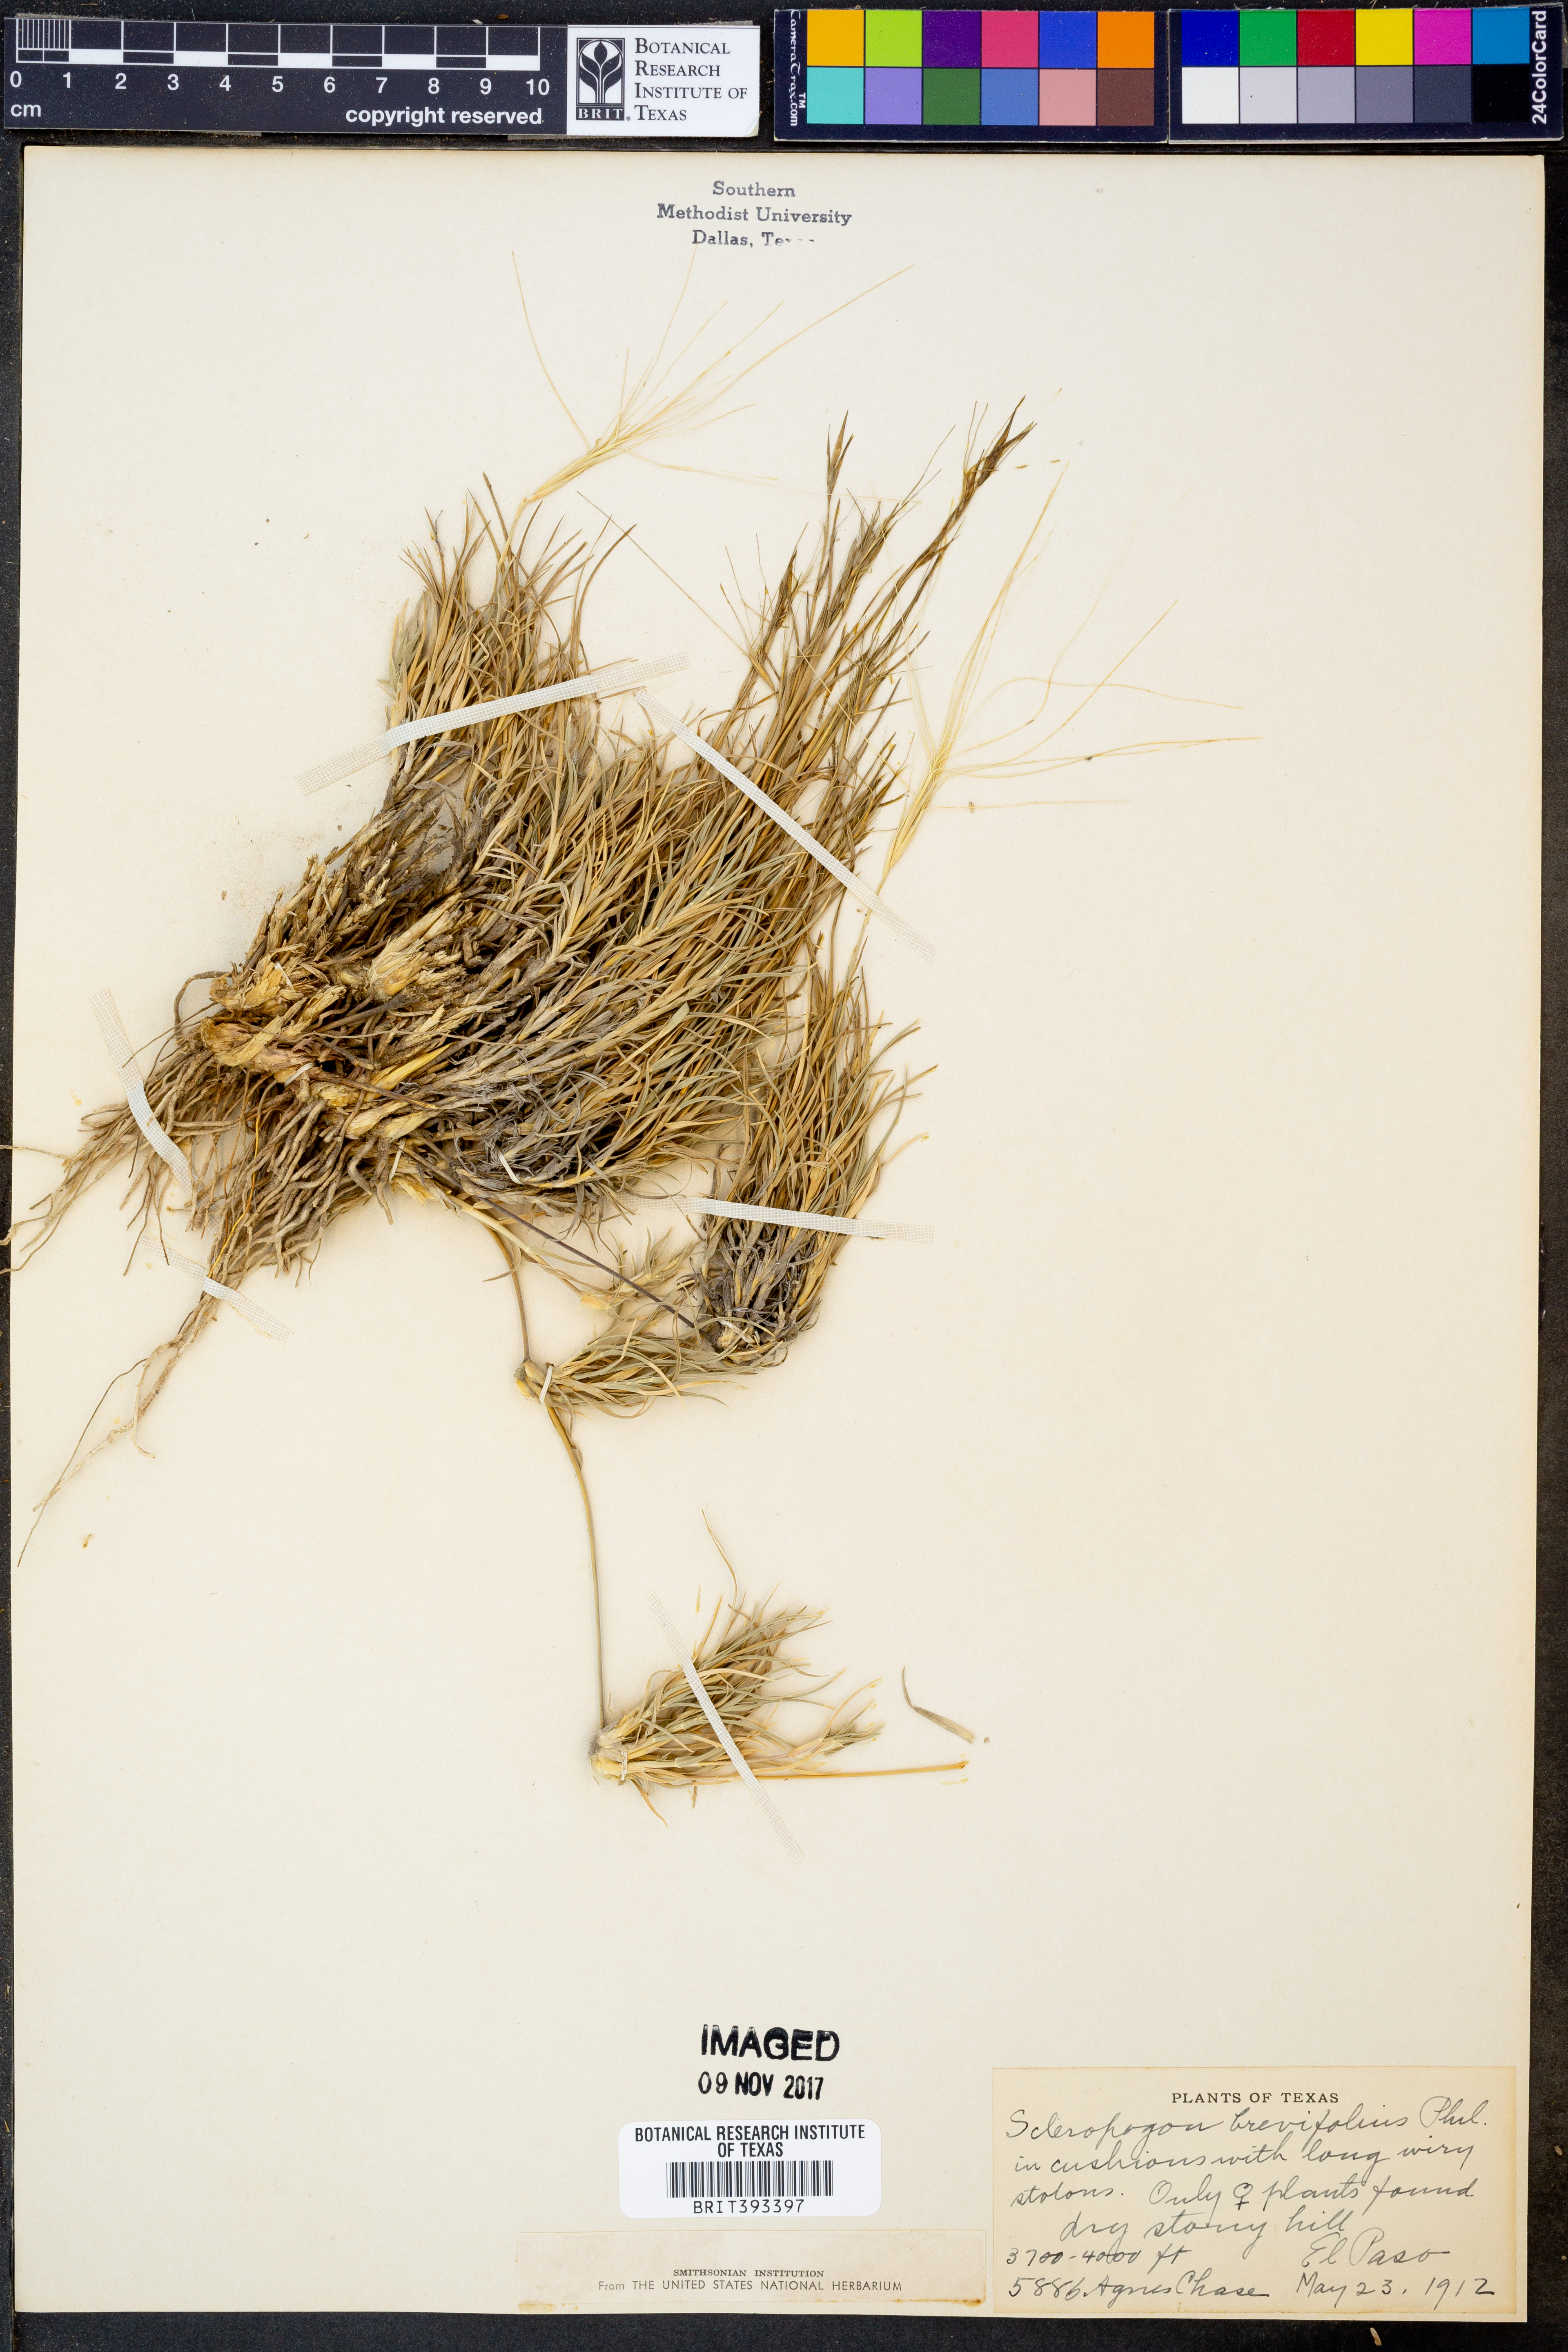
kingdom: Plantae
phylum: Tracheophyta
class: Liliopsida
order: Poales
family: Poaceae
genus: Scleropogon
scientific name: Scleropogon brevifolius
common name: Burro grass
